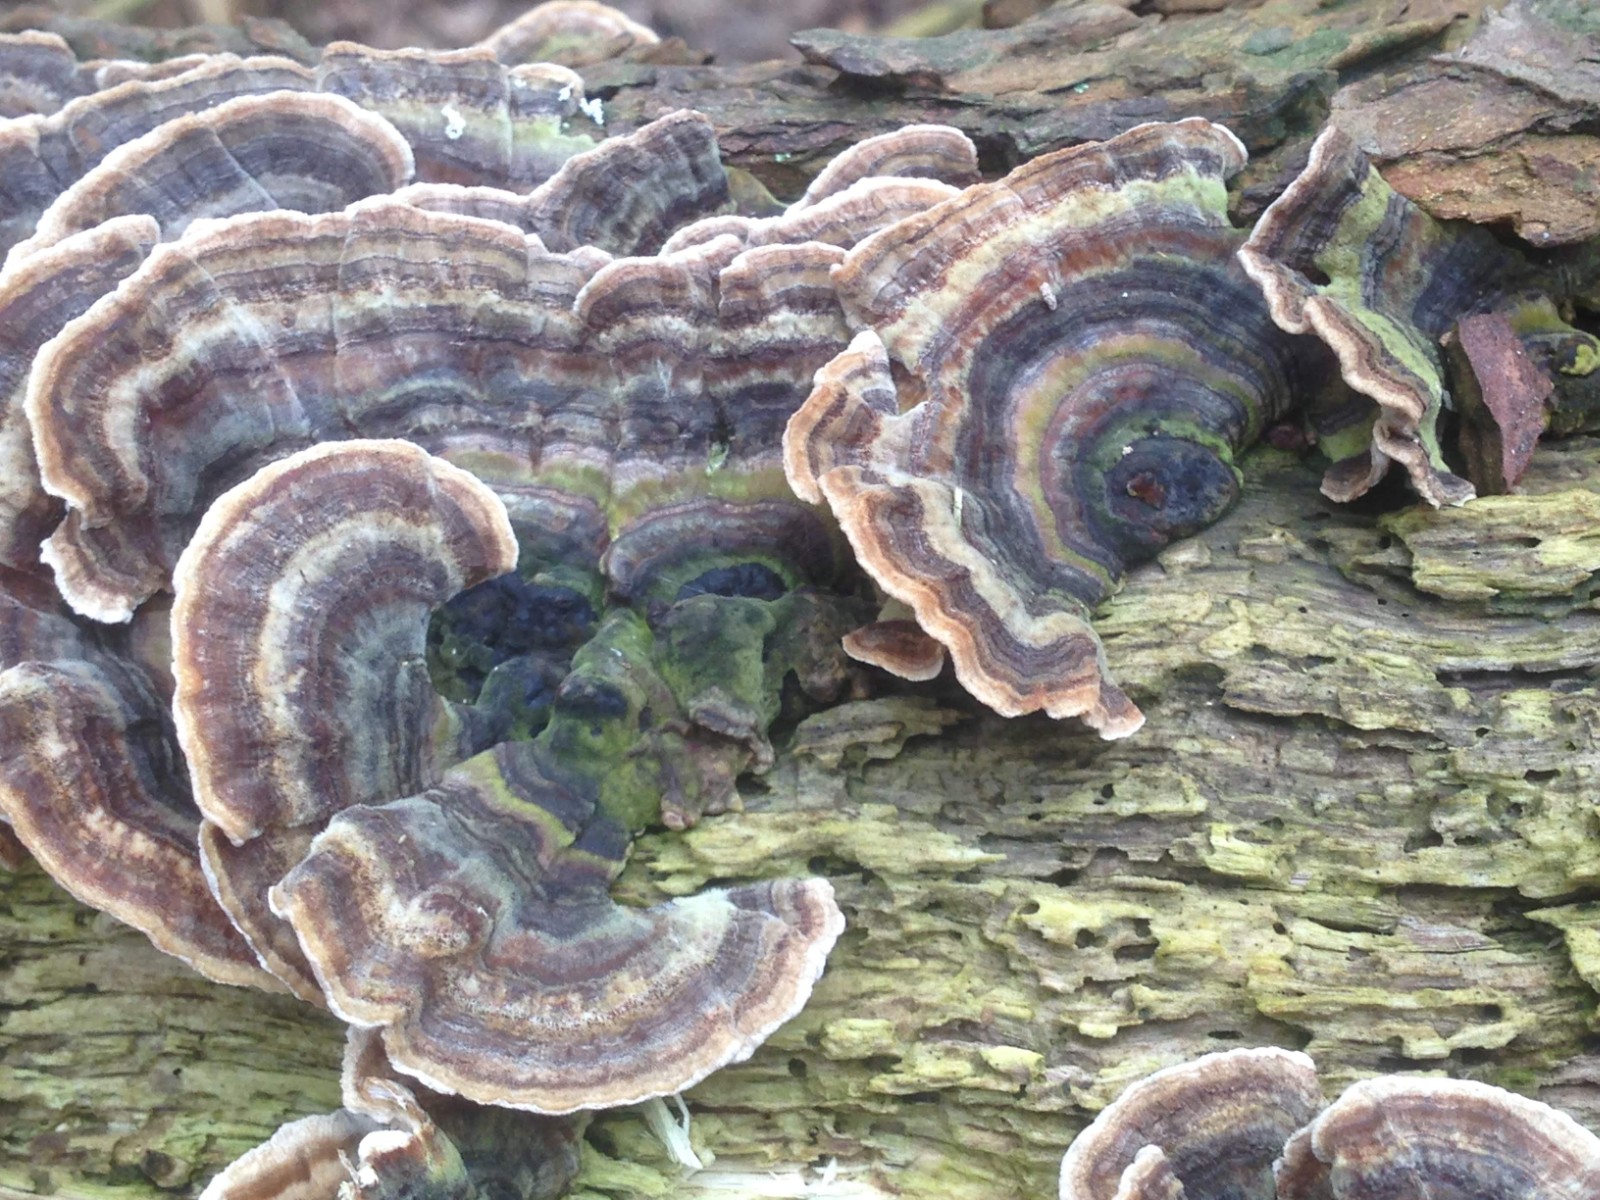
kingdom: Fungi
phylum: Basidiomycota
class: Agaricomycetes
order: Polyporales
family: Polyporaceae
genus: Trametes
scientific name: Trametes versicolor
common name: broget læderporesvamp
